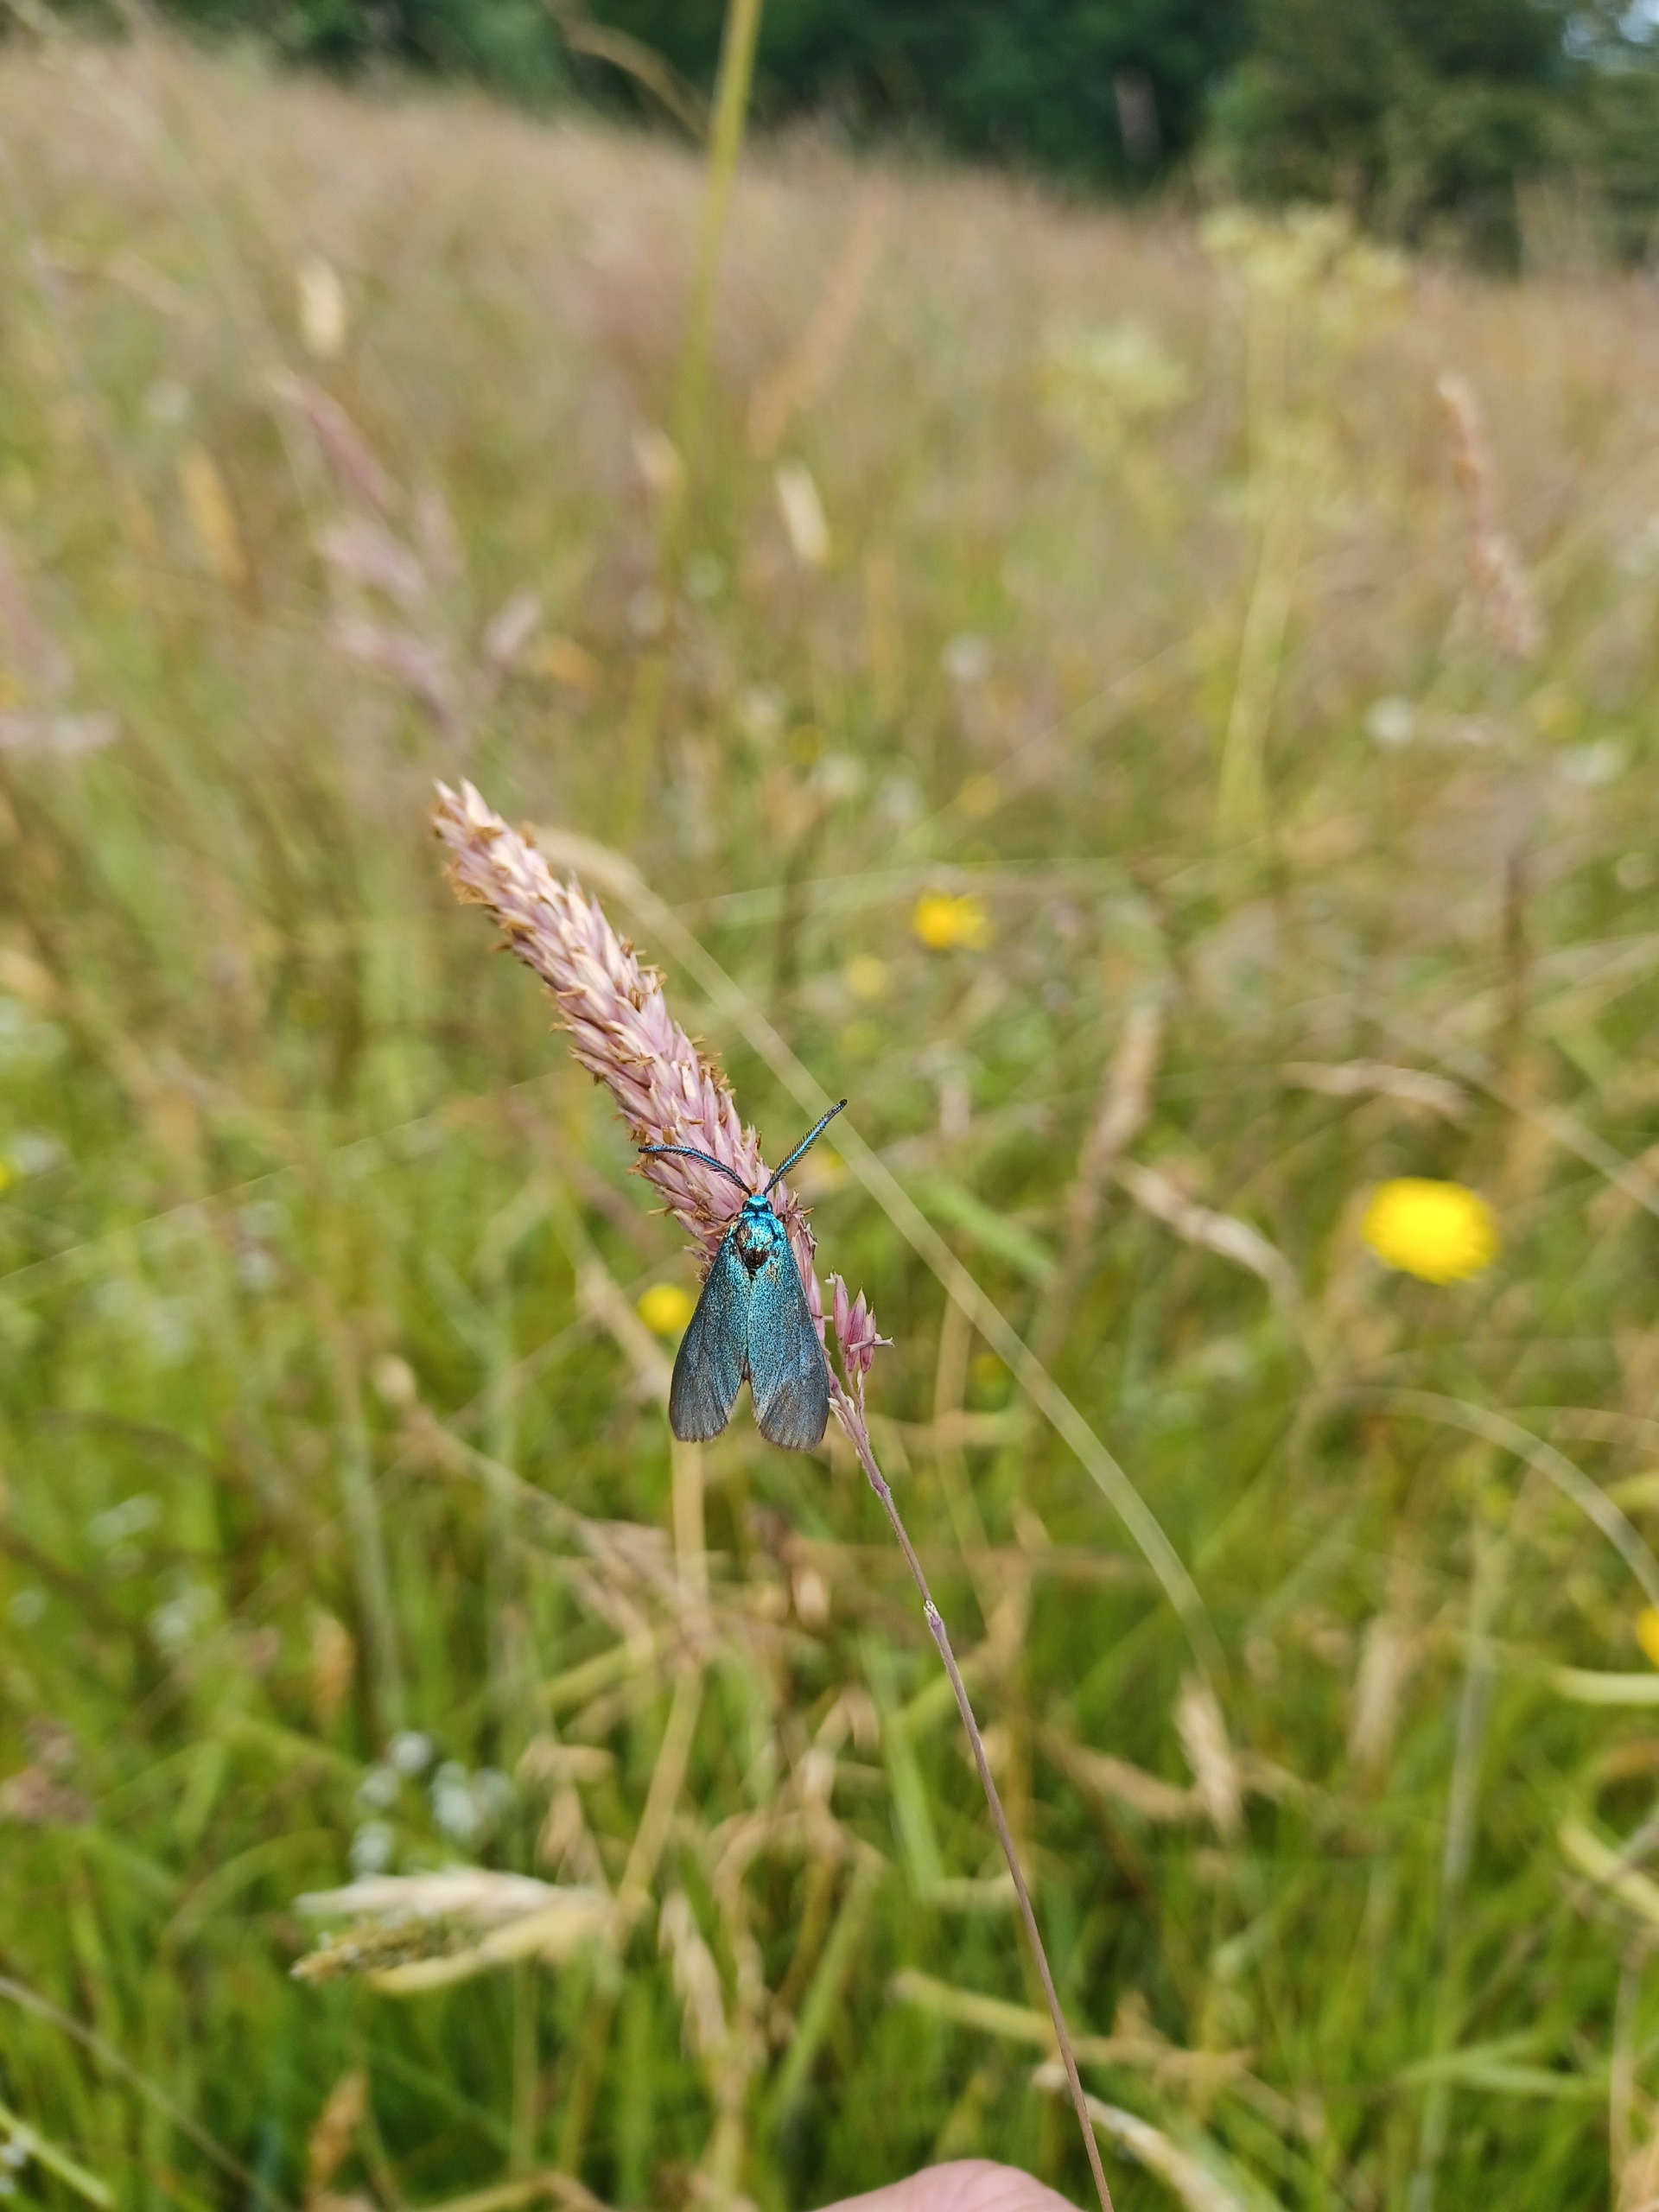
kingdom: Animalia
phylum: Arthropoda
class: Insecta
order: Lepidoptera
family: Zygaenidae
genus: Adscita
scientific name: Adscita statices
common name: Metalvinge
